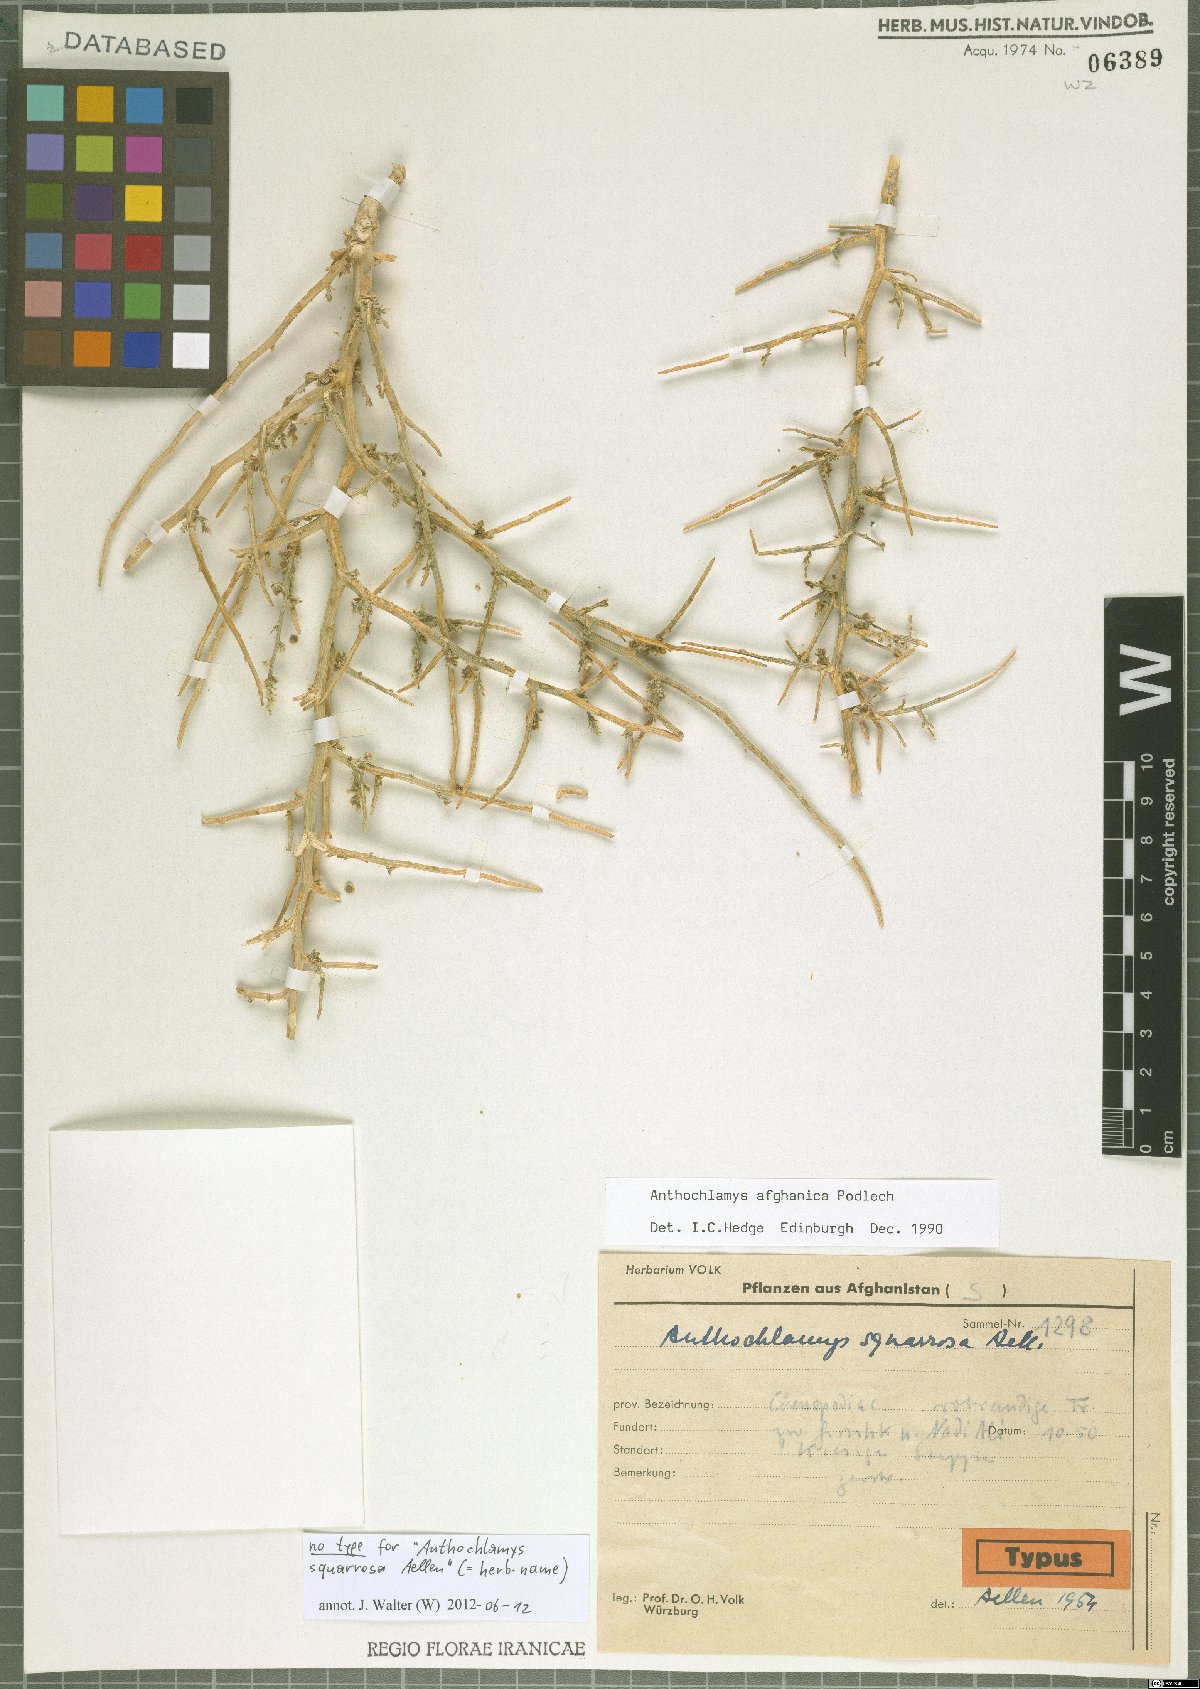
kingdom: Plantae
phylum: Tracheophyta
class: Magnoliopsida
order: Caryophyllales
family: Amaranthaceae
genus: Anthochlamys
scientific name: Anthochlamys afghanica
